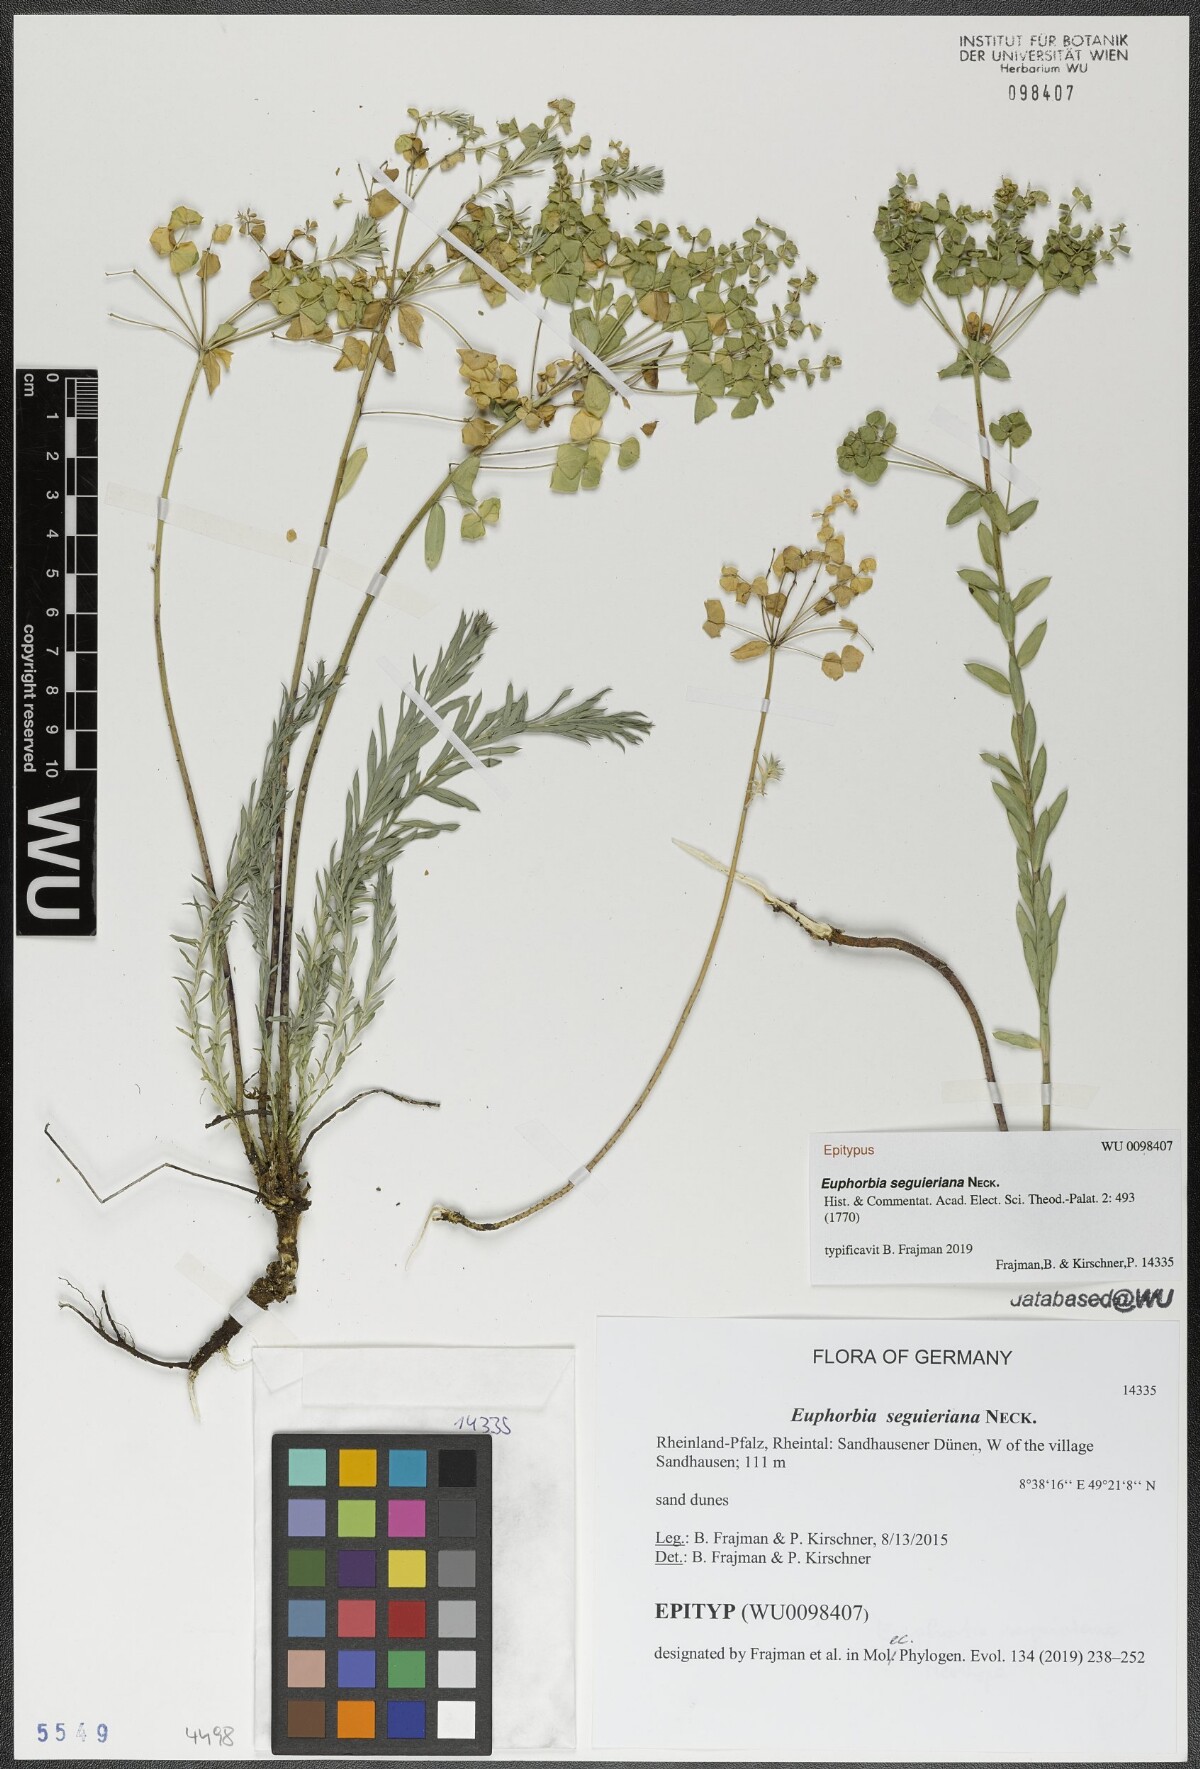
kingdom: Plantae
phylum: Tracheophyta
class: Magnoliopsida
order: Malpighiales
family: Euphorbiaceae
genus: Euphorbia
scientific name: Euphorbia seguieriana
